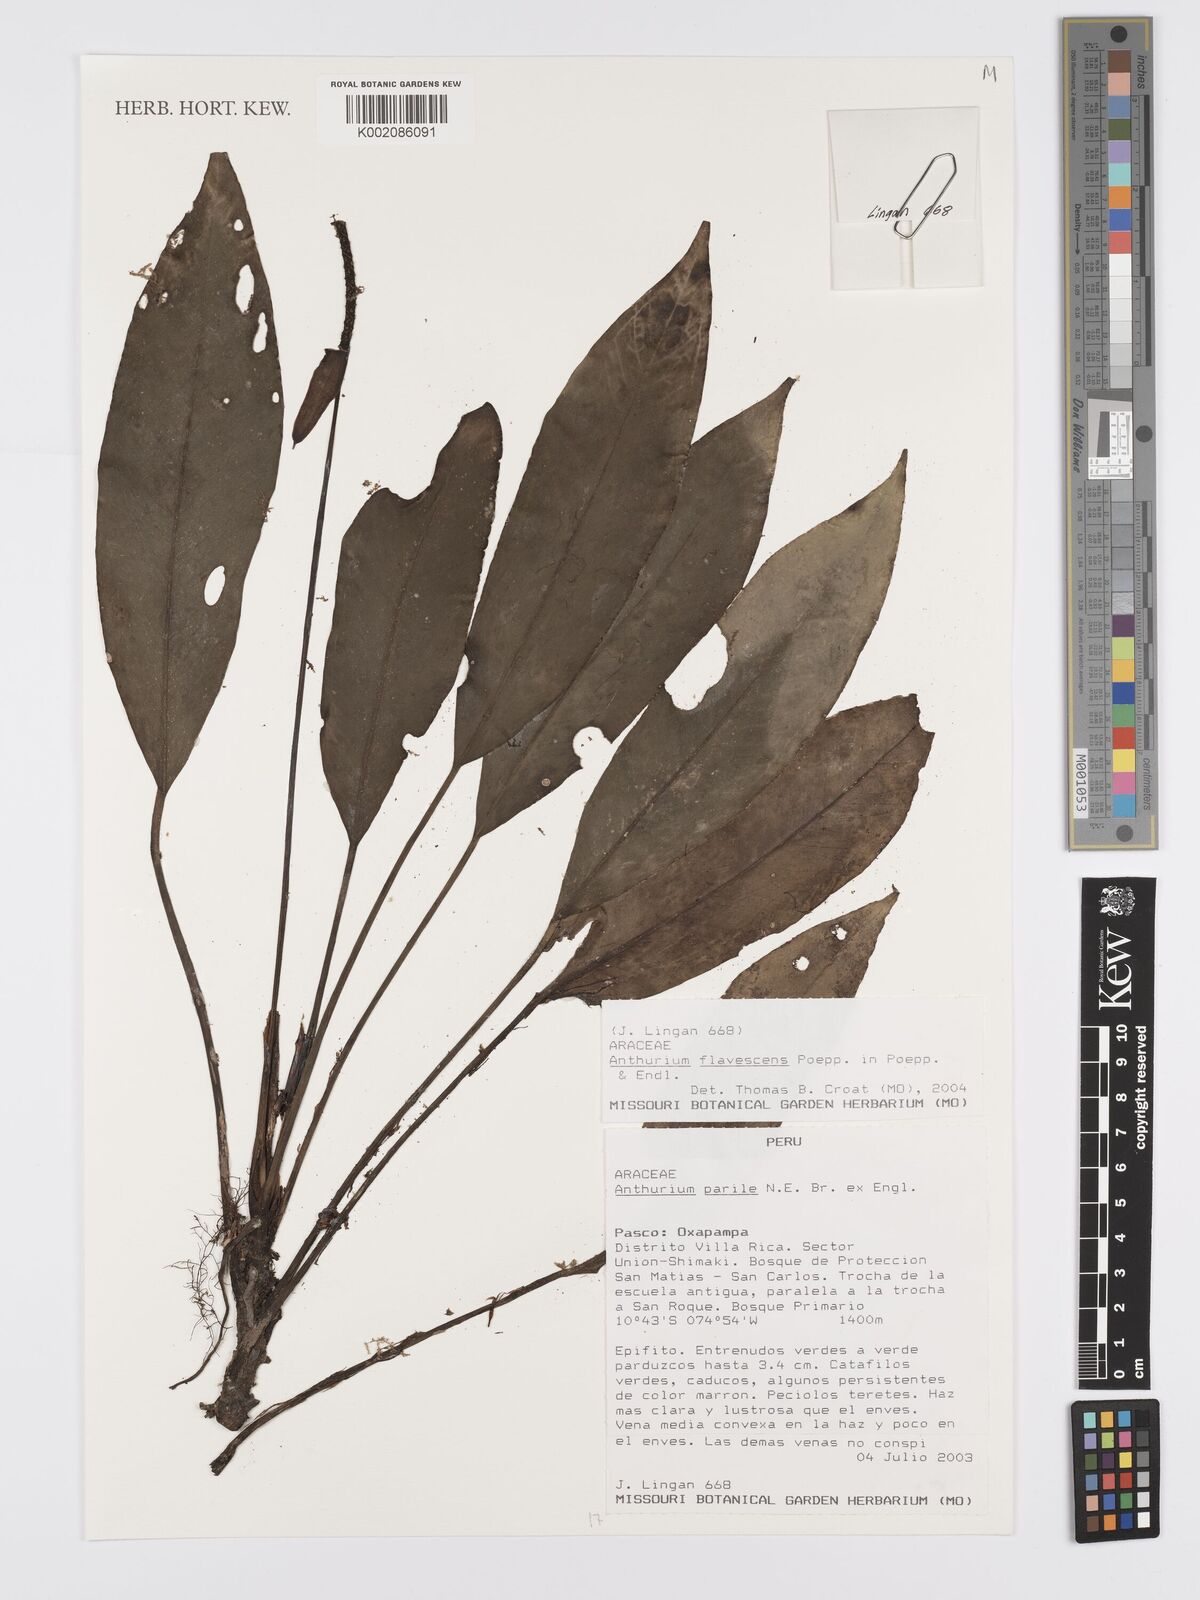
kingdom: Plantae
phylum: Tracheophyta
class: Liliopsida
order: Alismatales
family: Araceae
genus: Anthurium
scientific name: Anthurium flavescens
